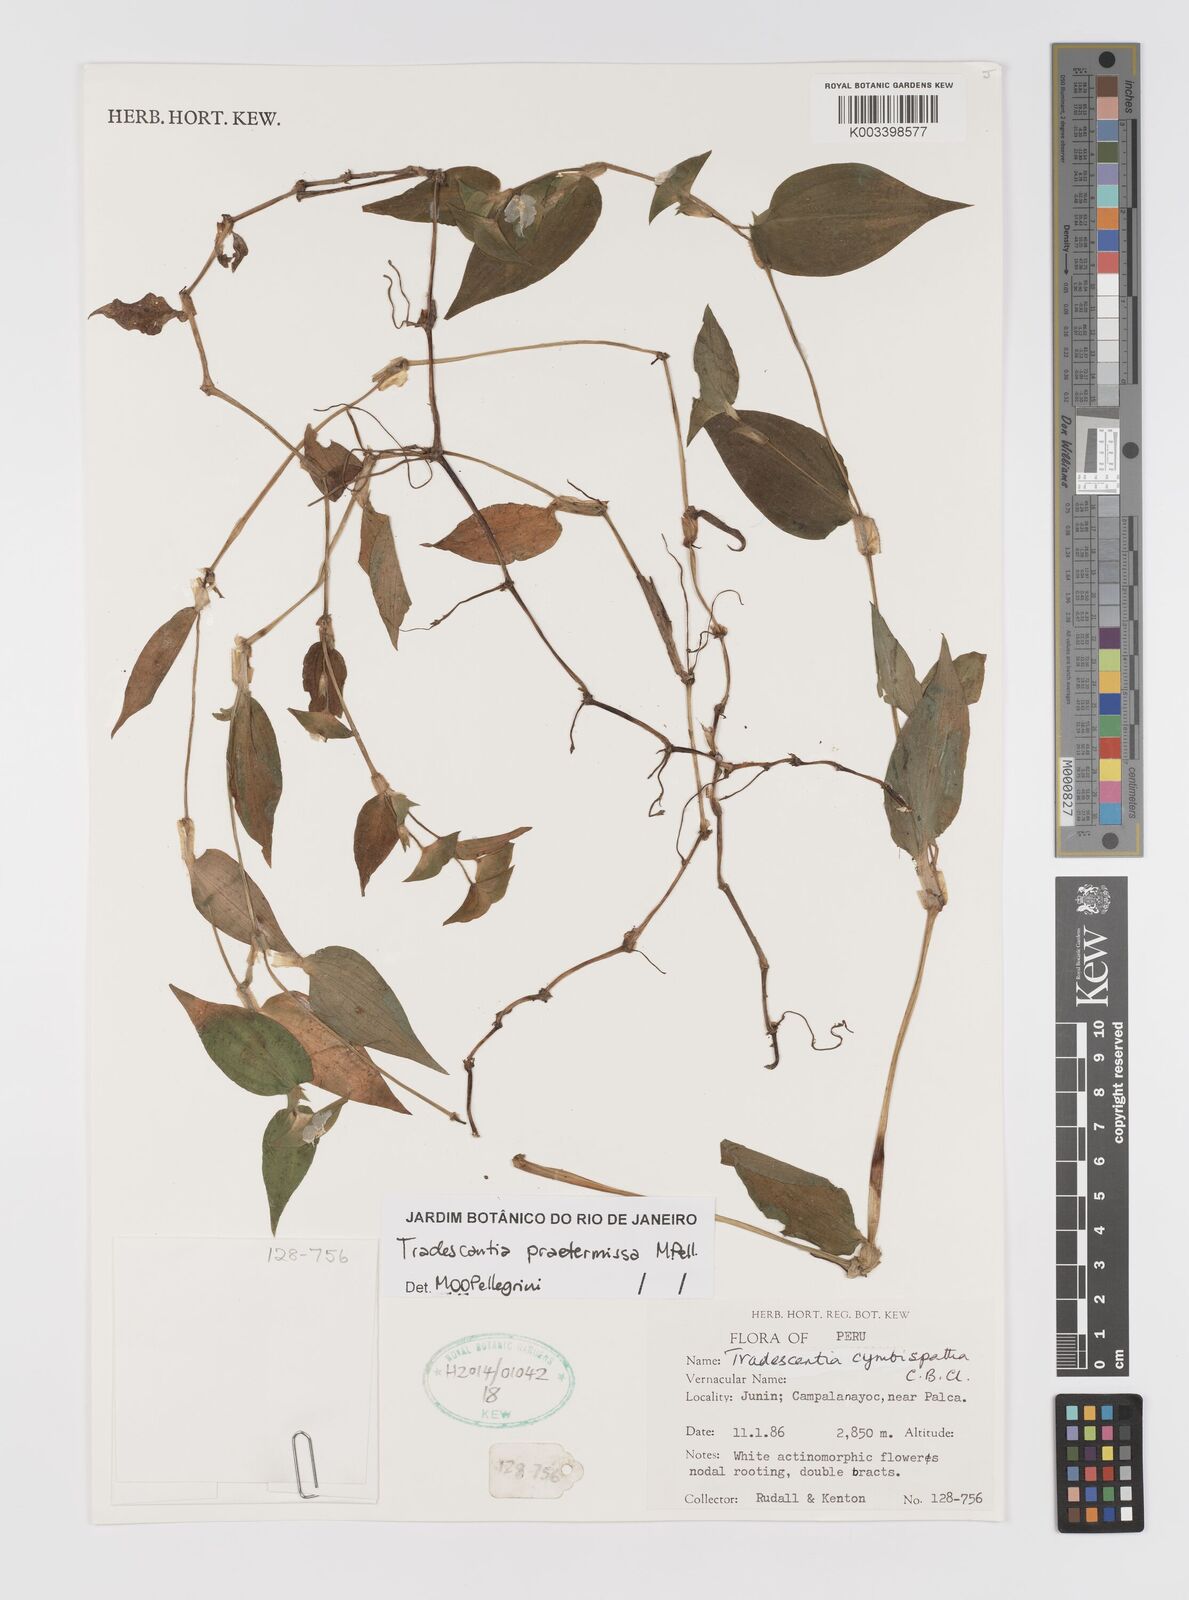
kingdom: Plantae
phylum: Tracheophyta
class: Liliopsida
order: Commelinales
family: Commelinaceae
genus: Tradescantia
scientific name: Tradescantia praetermissa
